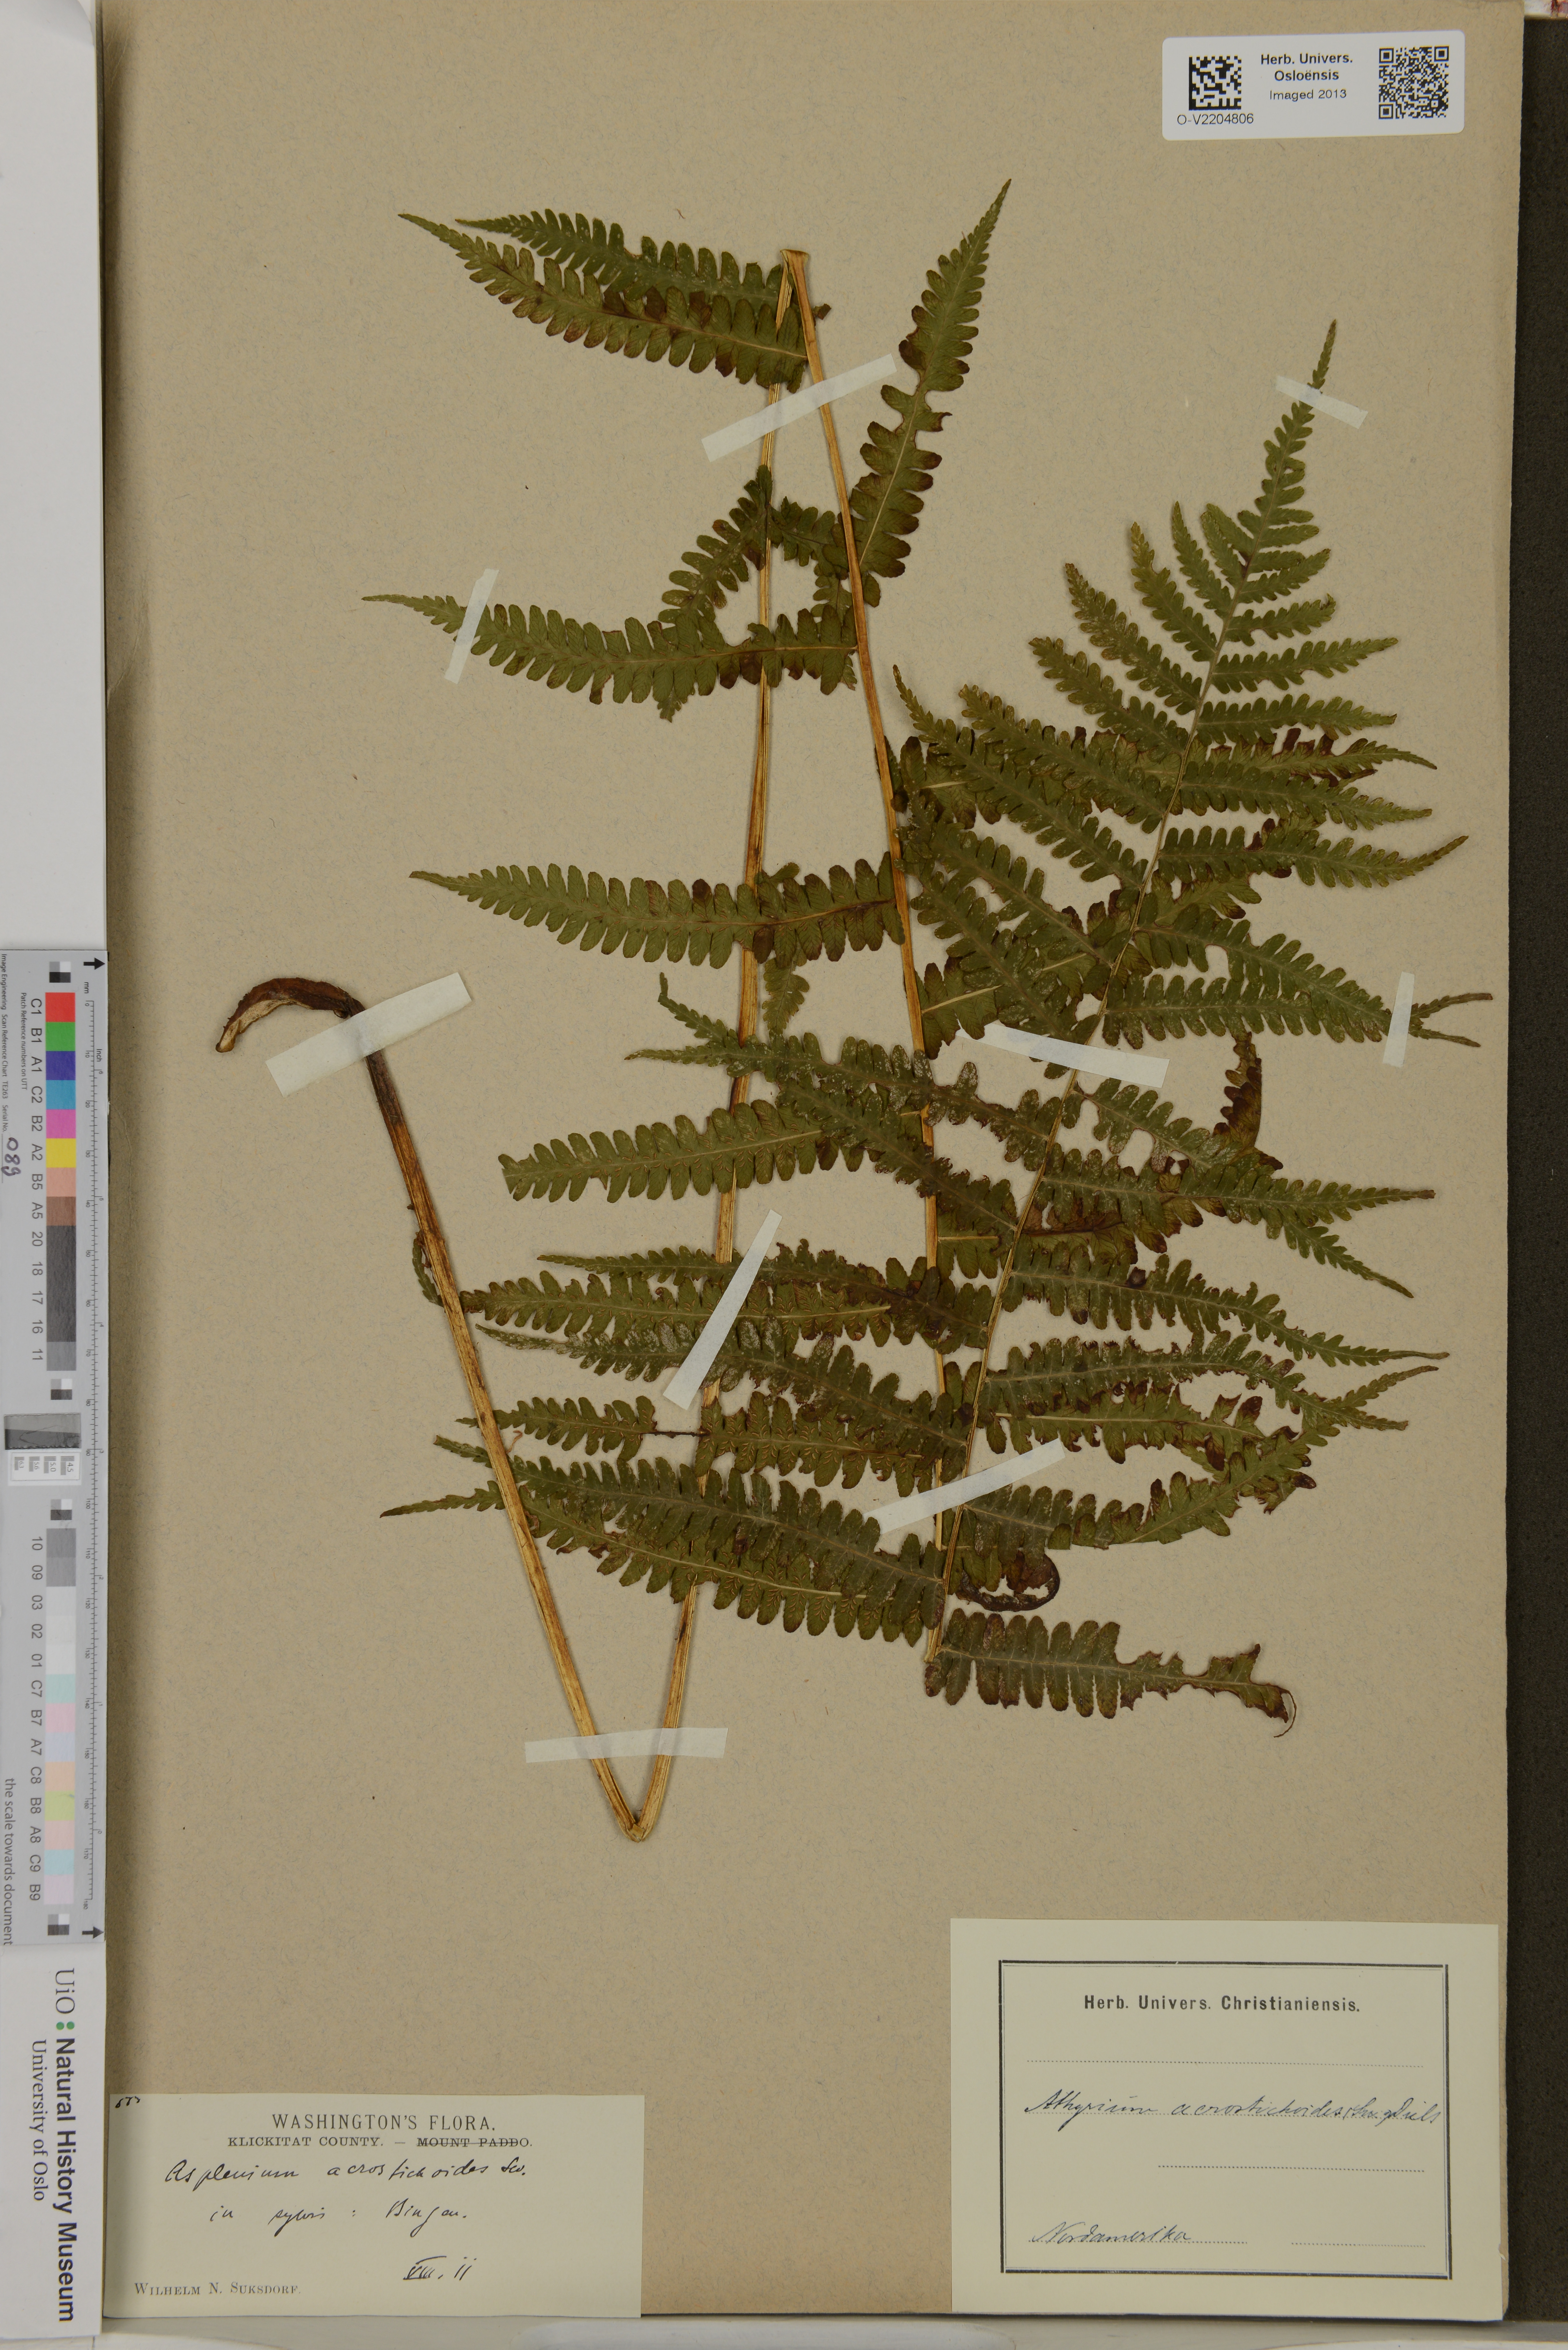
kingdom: Plantae
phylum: Tracheophyta
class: Polypodiopsida
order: Polypodiales
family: Athyriaceae
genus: Deparia
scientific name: Deparia acrostichoides
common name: Silver false spleenwort
